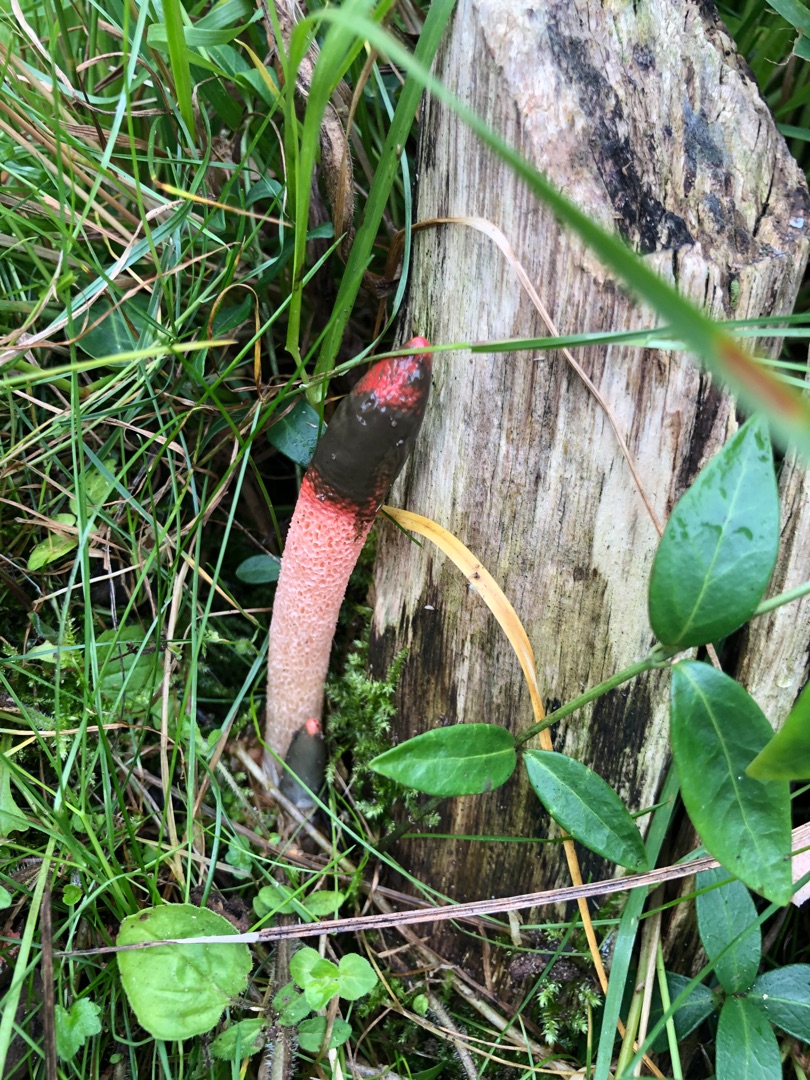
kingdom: Fungi
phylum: Basidiomycota
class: Agaricomycetes
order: Phallales
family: Phallaceae
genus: Mutinus
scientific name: Mutinus ravenelii
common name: Rød stinksvamp
